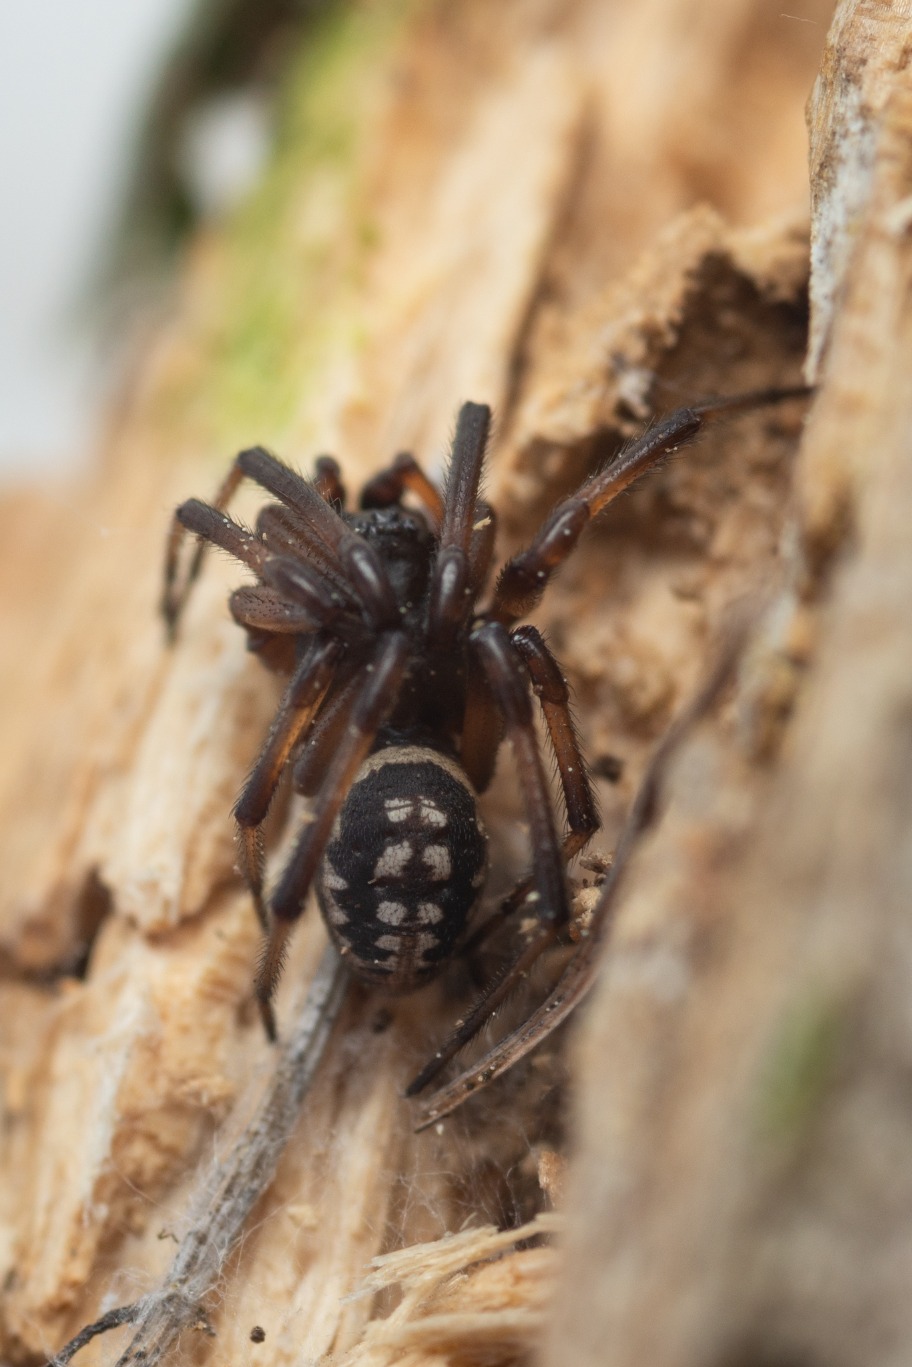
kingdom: Animalia
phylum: Arthropoda
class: Arachnida
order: Araneae
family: Theridiidae
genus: Steatoda
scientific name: Steatoda albomaculata
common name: Hvidplettet voksedderkop
